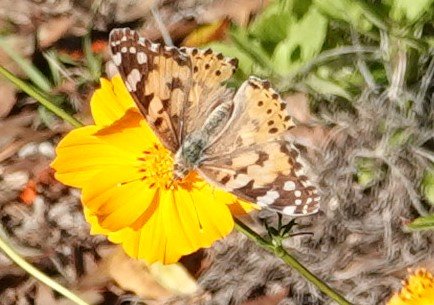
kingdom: Animalia
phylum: Arthropoda
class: Insecta
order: Lepidoptera
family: Nymphalidae
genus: Vanessa
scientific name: Vanessa cardui
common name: Painted Lady
